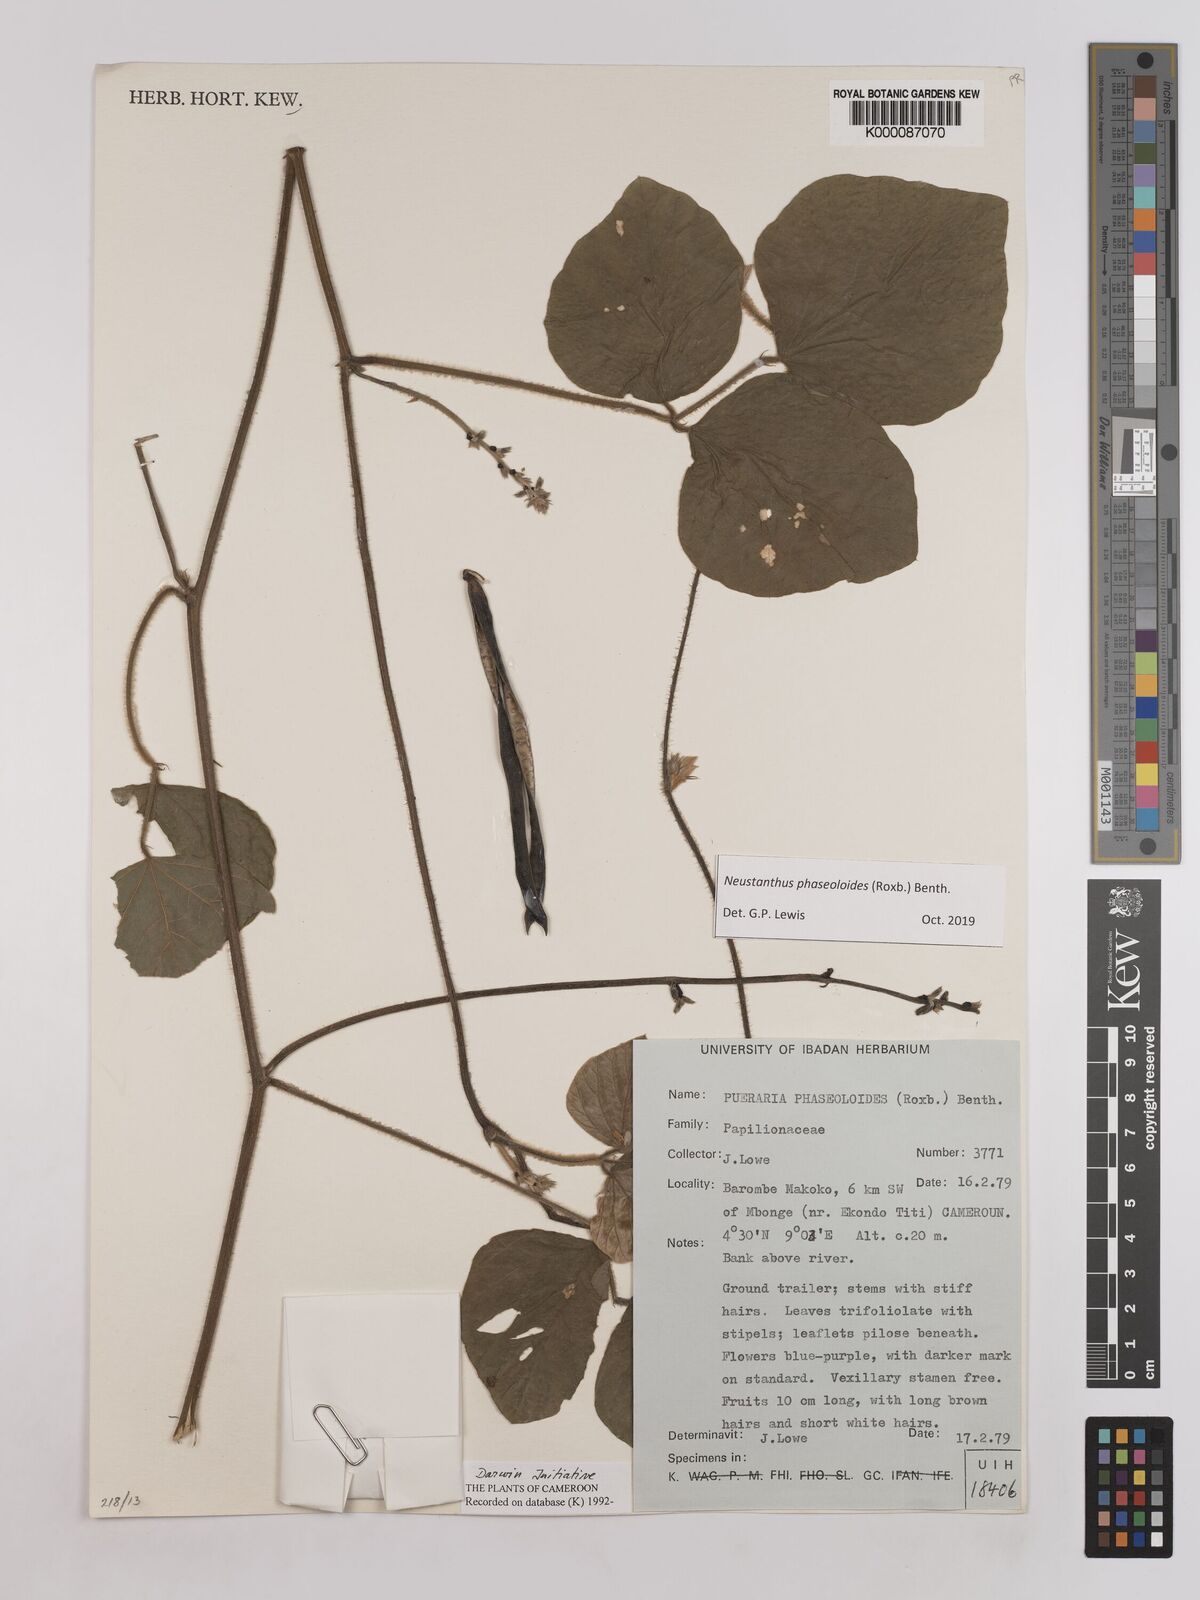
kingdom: Plantae
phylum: Tracheophyta
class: Magnoliopsida
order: Fabales
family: Fabaceae
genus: Neustanthus
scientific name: Neustanthus phaseoloides
